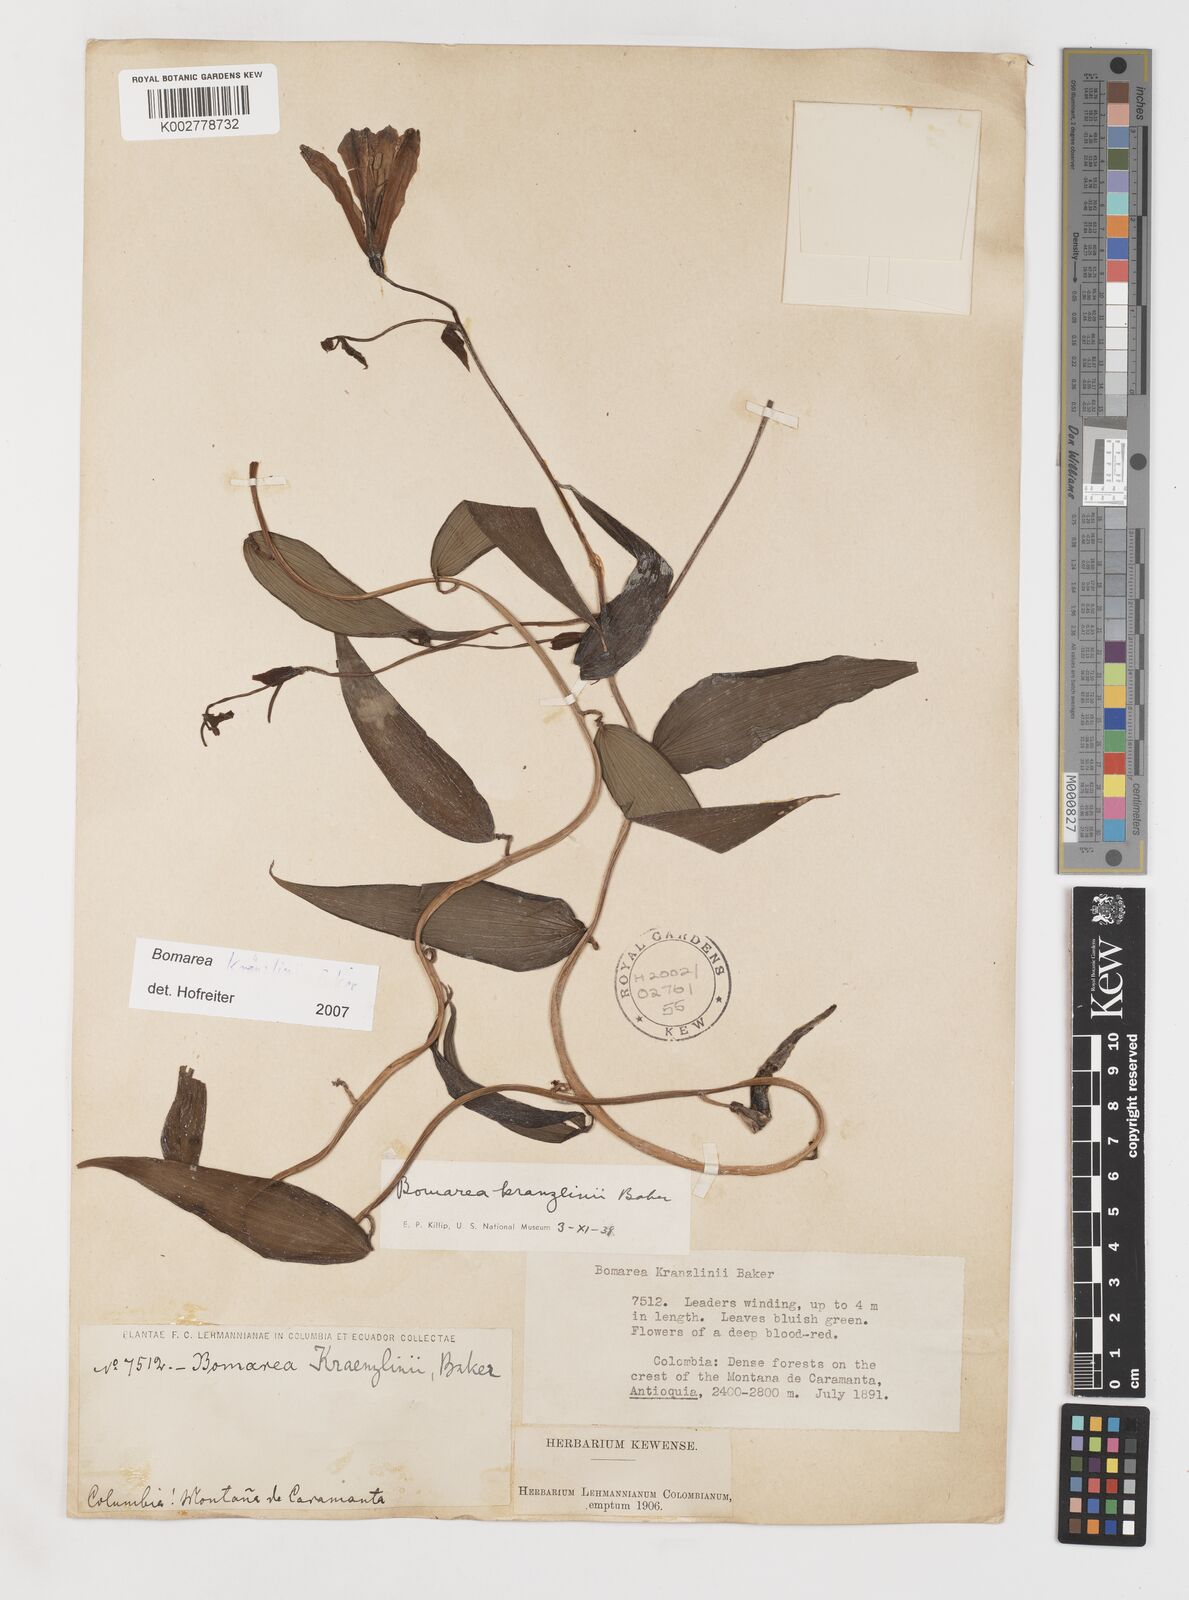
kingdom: Plantae
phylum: Tracheophyta
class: Liliopsida
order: Liliales
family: Alstroemeriaceae
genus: Bomarea
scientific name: Bomarea kraenzlinii
